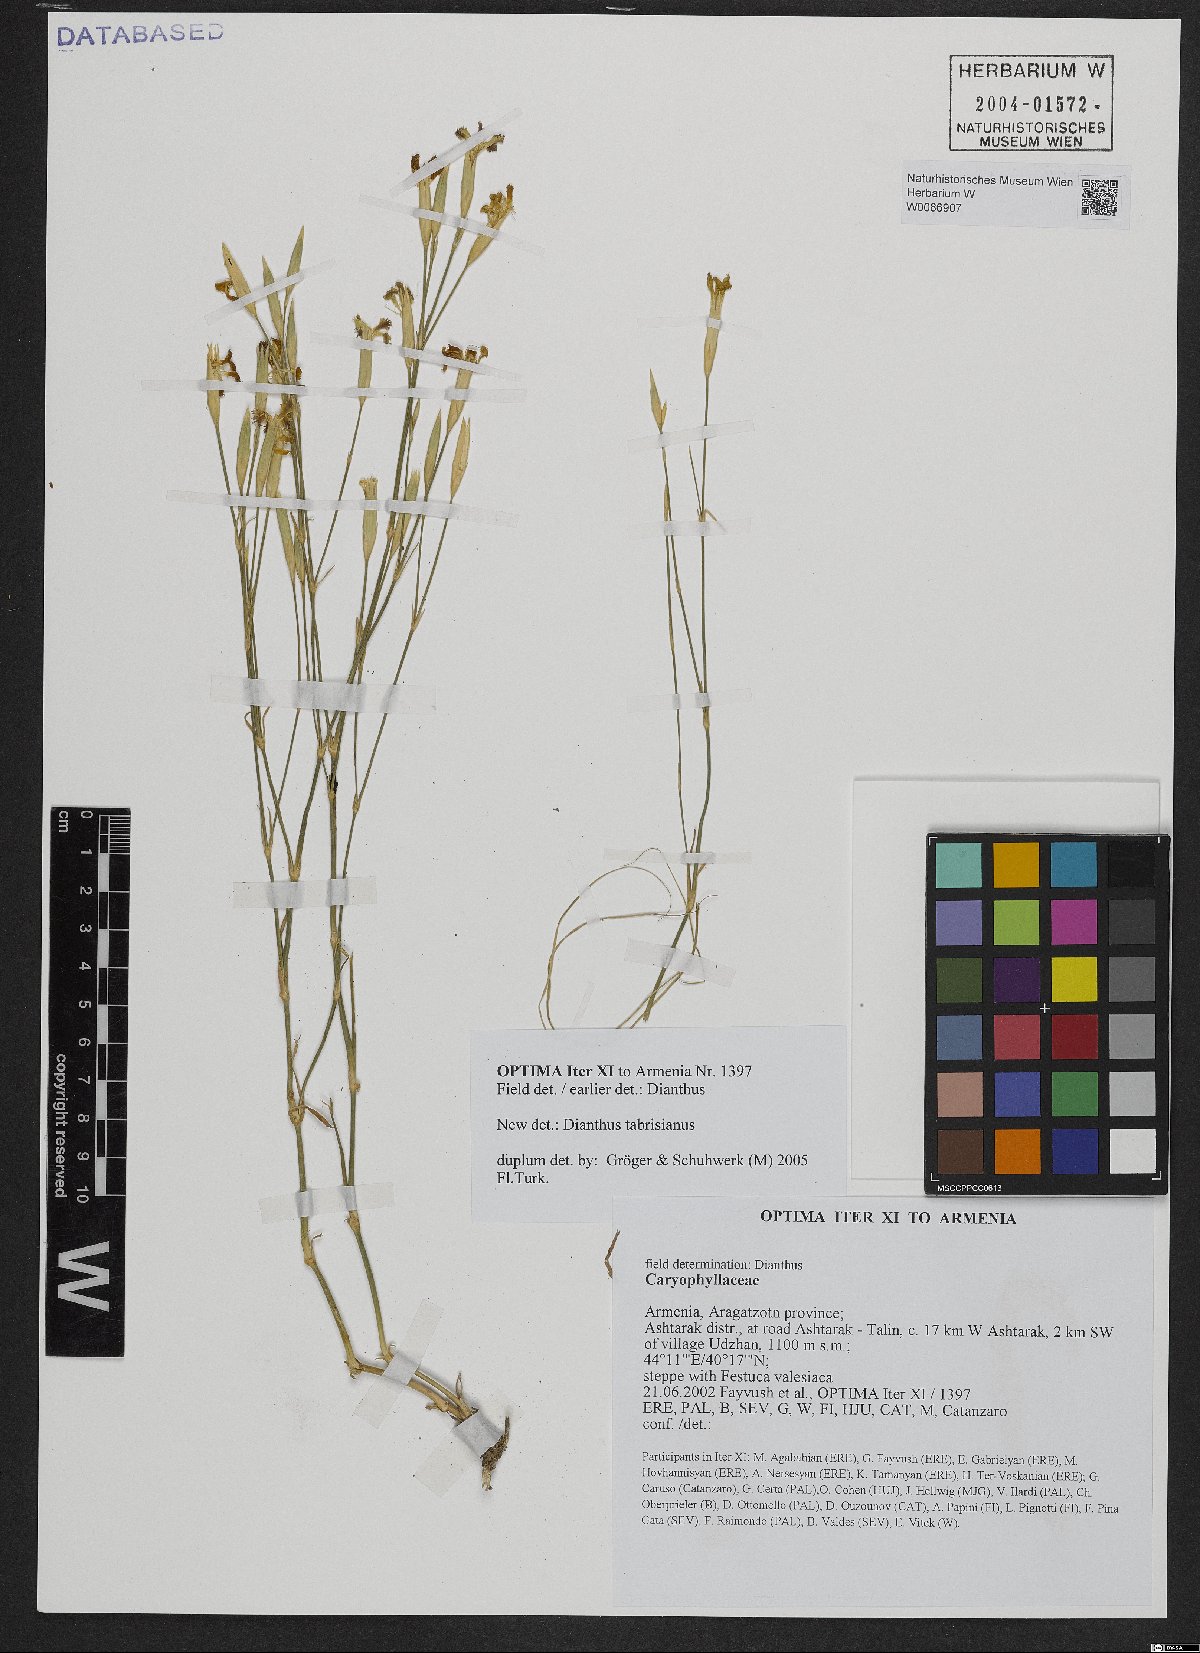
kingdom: Plantae
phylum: Tracheophyta
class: Magnoliopsida
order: Caryophyllales
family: Caryophyllaceae
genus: Dianthus
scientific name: Dianthus tabrisianus
